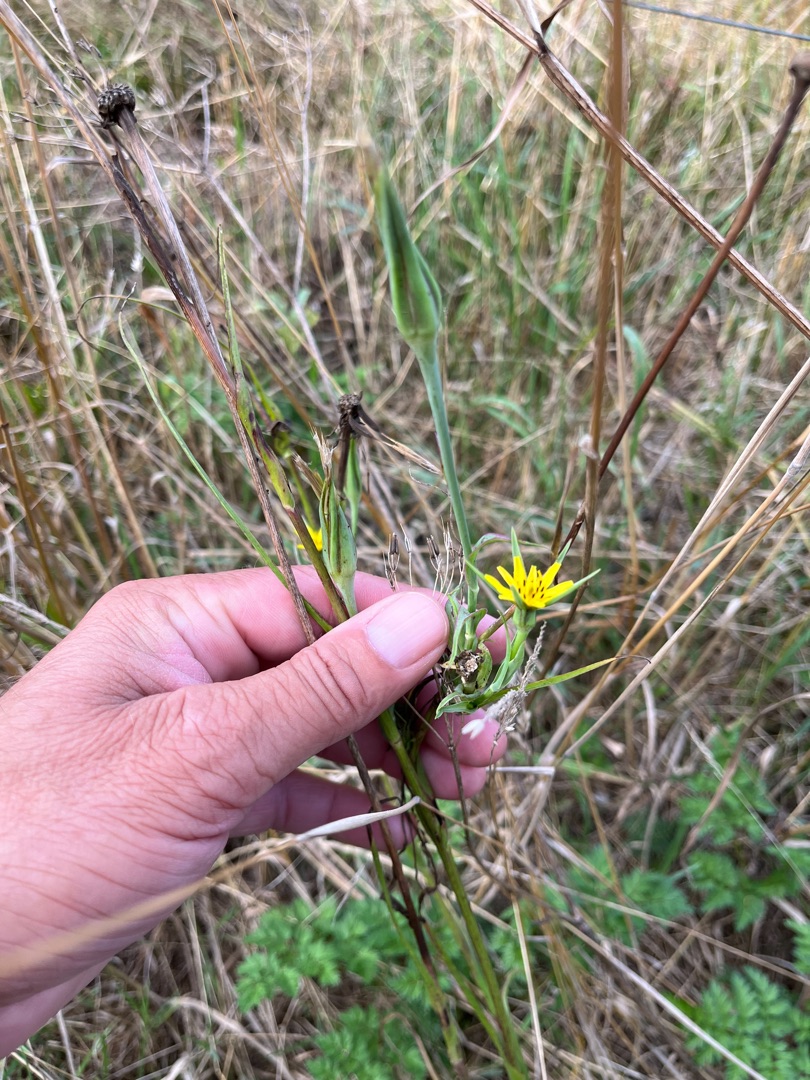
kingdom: Plantae
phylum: Tracheophyta
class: Magnoliopsida
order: Asterales
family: Asteraceae
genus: Tragopogon
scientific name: Tragopogon minor
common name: Småkronet gedeskæg
